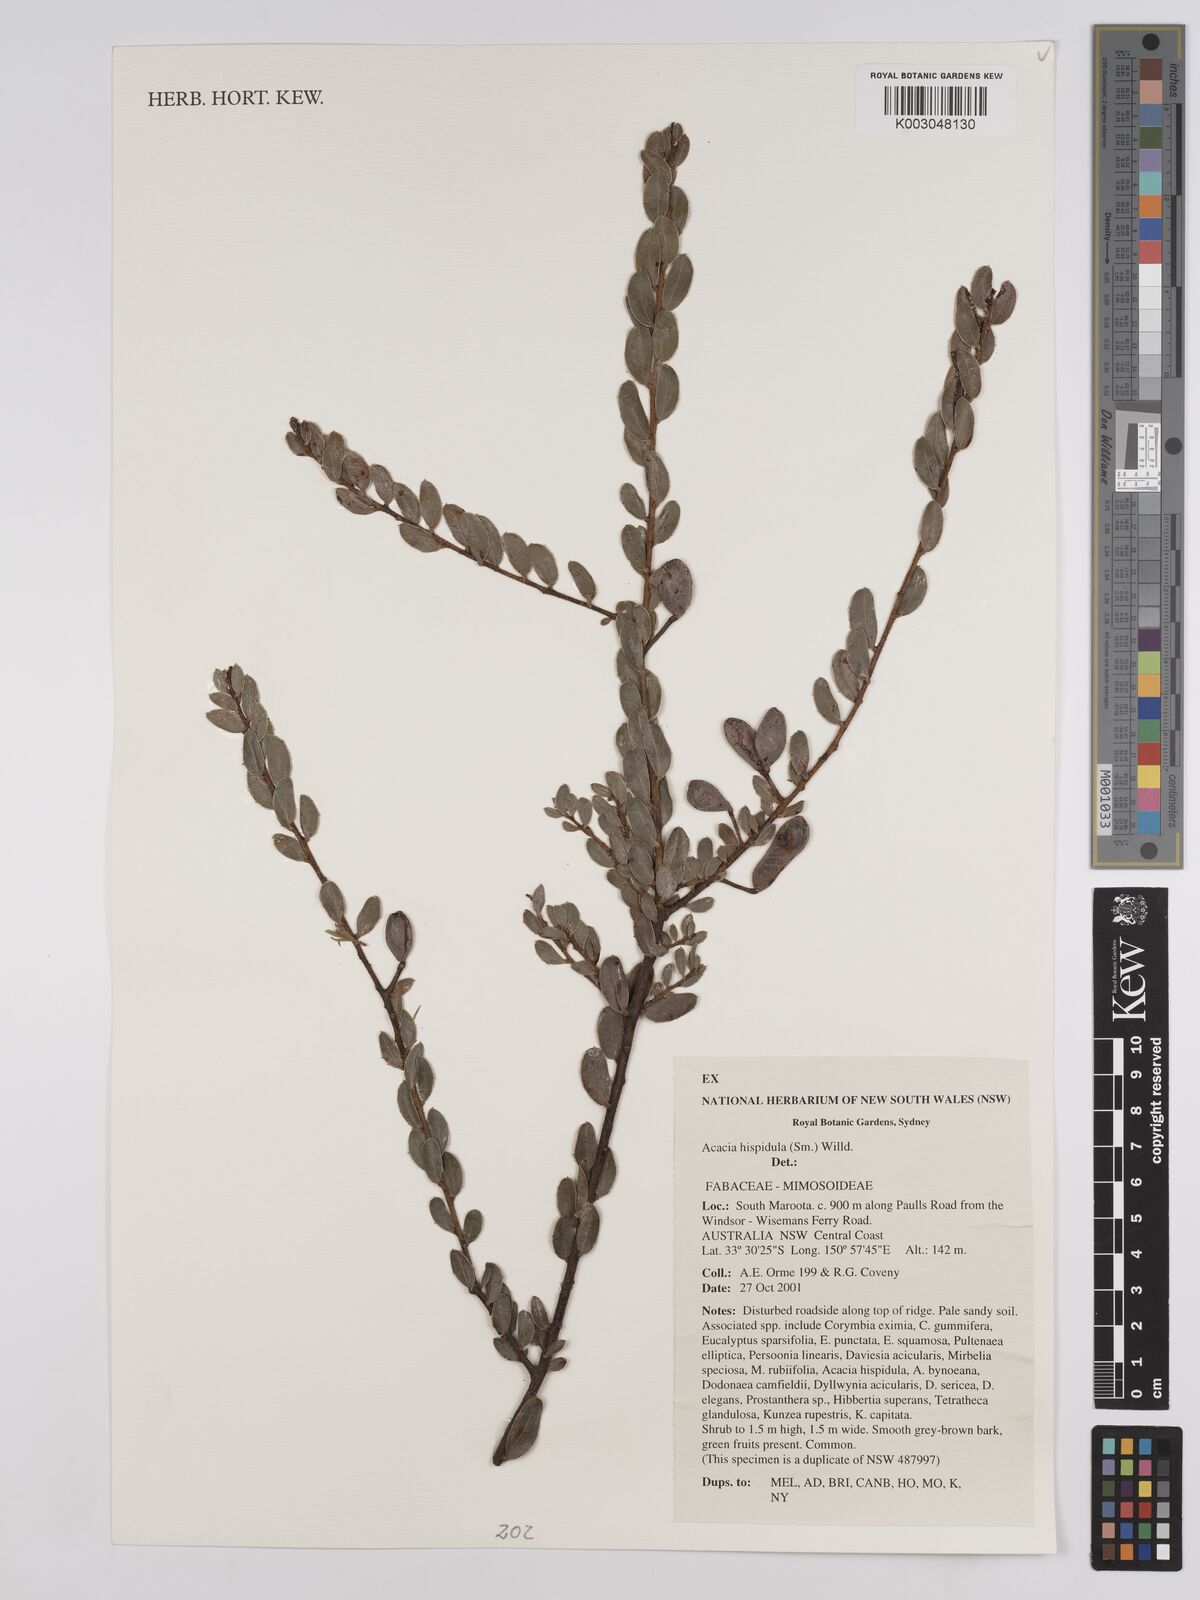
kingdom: Plantae
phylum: Tracheophyta
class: Magnoliopsida
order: Fabales
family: Fabaceae
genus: Acacia
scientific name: Acacia hispidula
